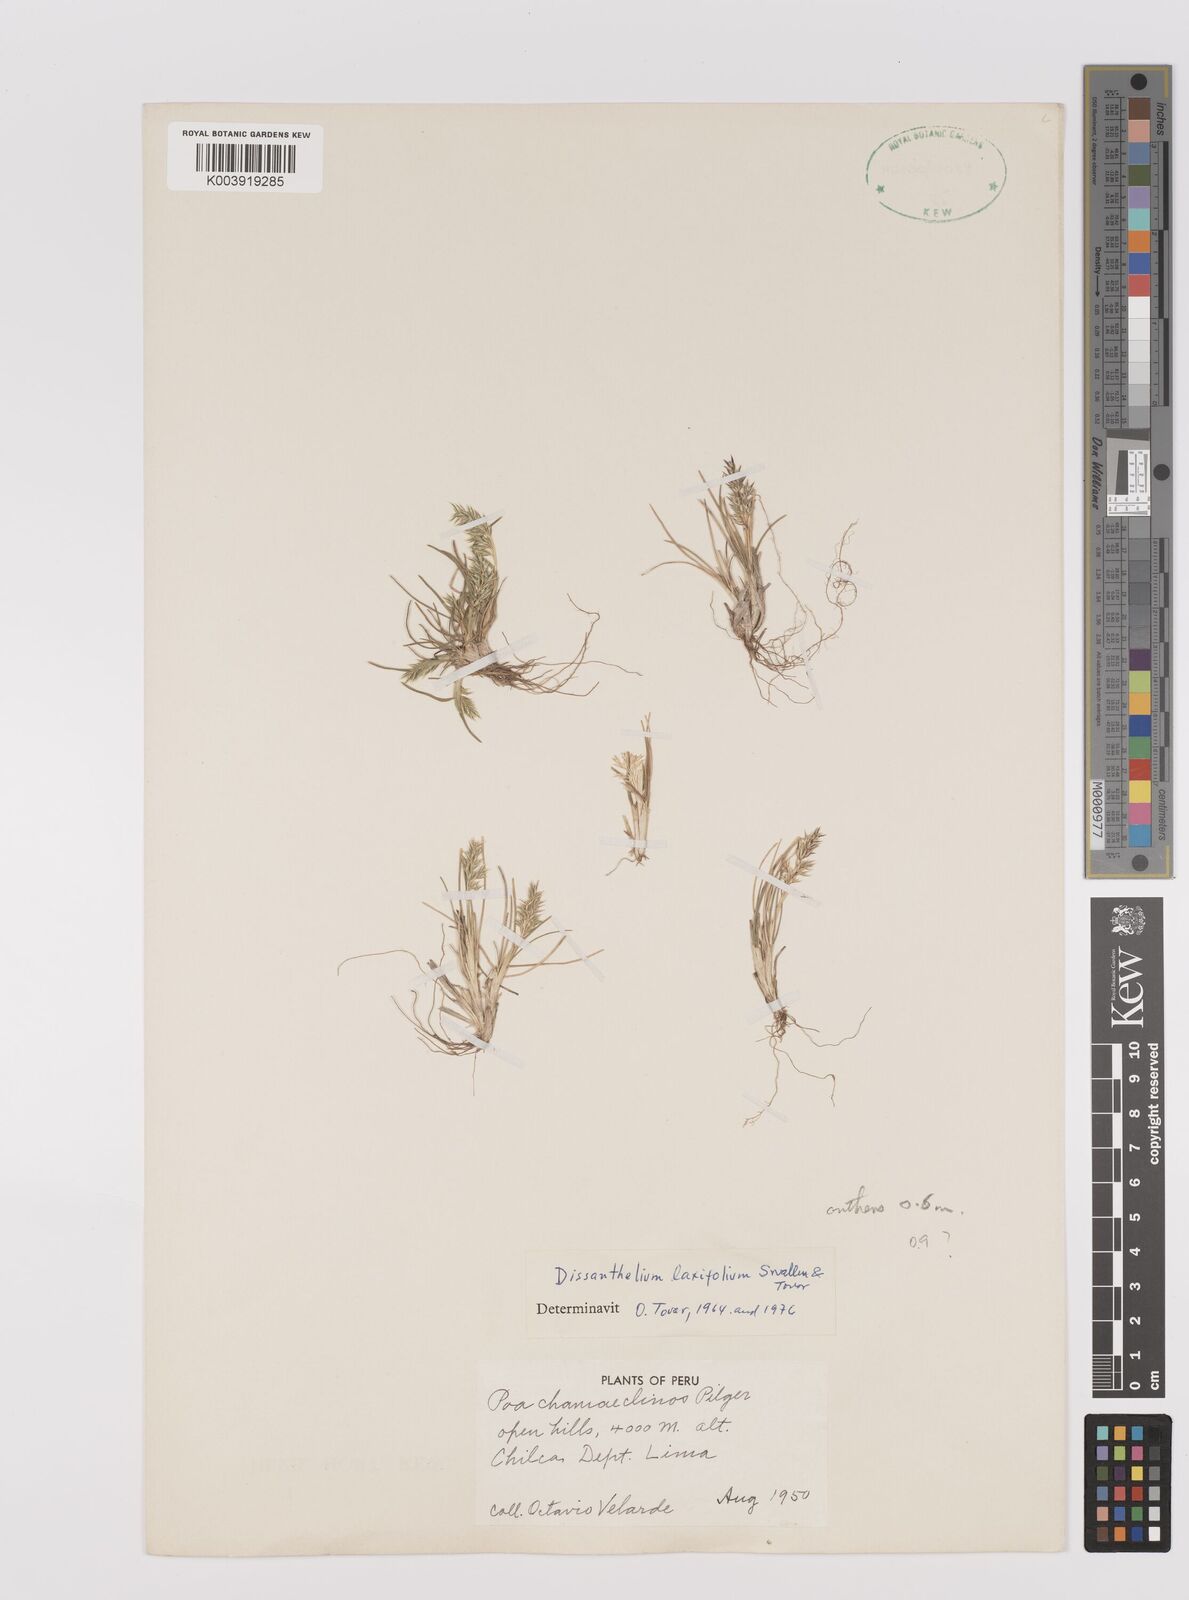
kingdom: Plantae
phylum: Tracheophyta
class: Liliopsida
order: Poales
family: Poaceae
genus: Poa
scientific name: Poa aequalis
